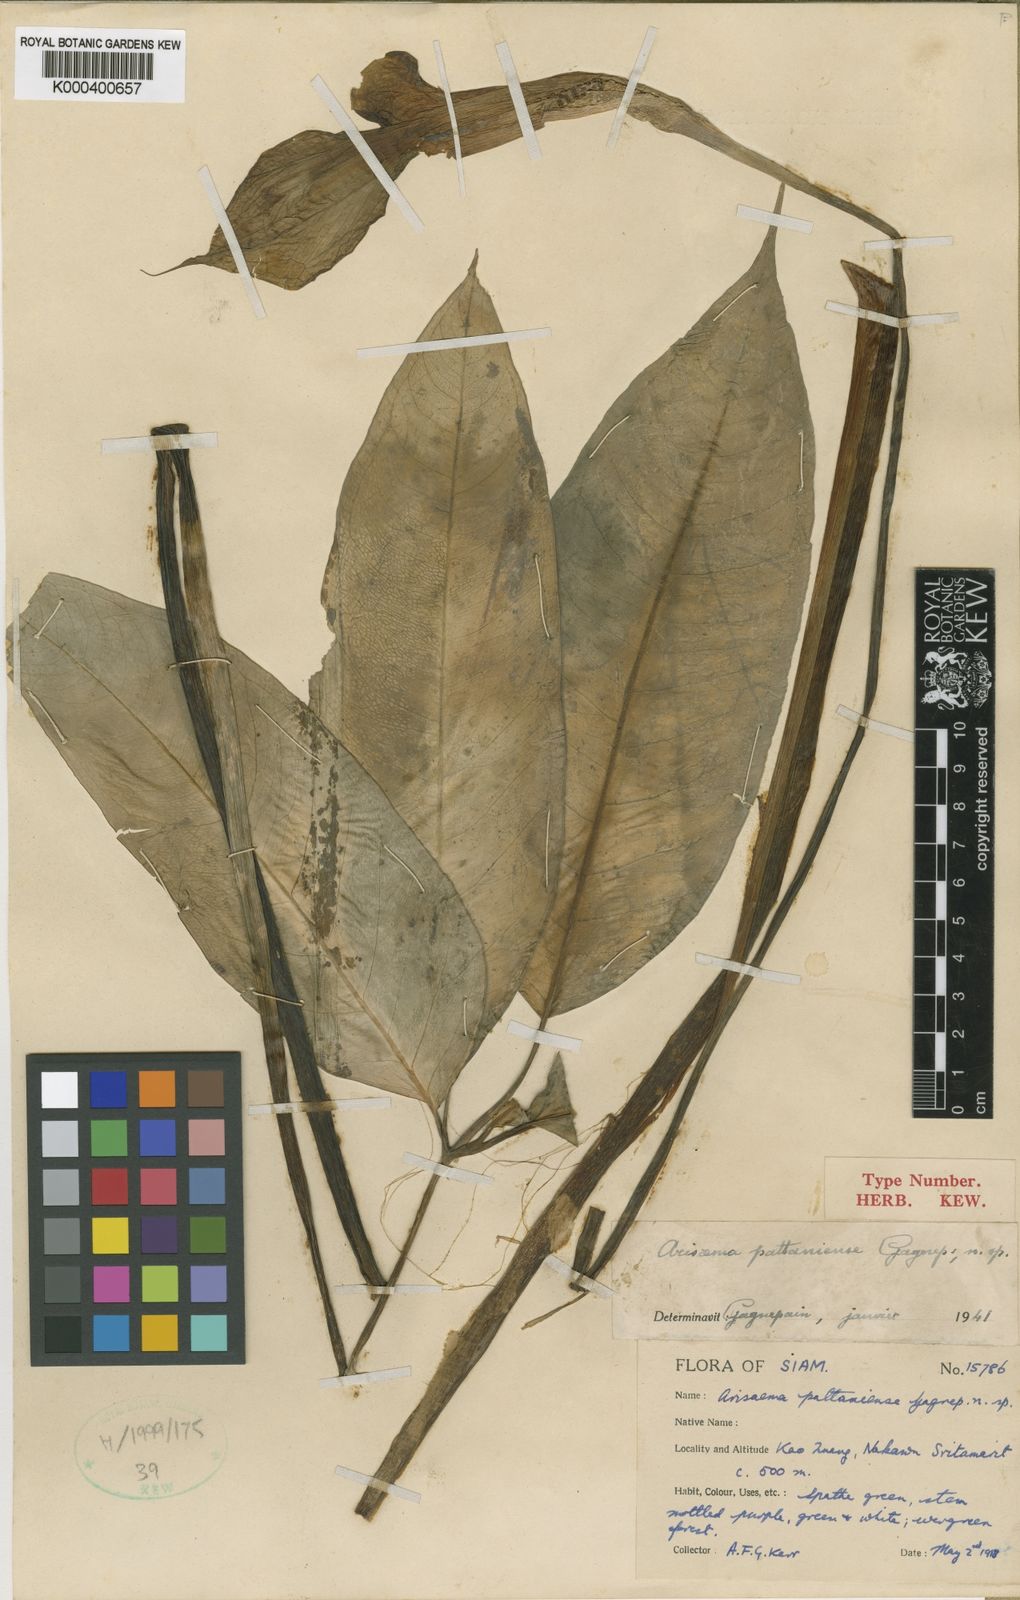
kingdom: Plantae
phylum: Tracheophyta
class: Liliopsida
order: Alismatales
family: Araceae
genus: Arisaema
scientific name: Arisaema pattaniense
